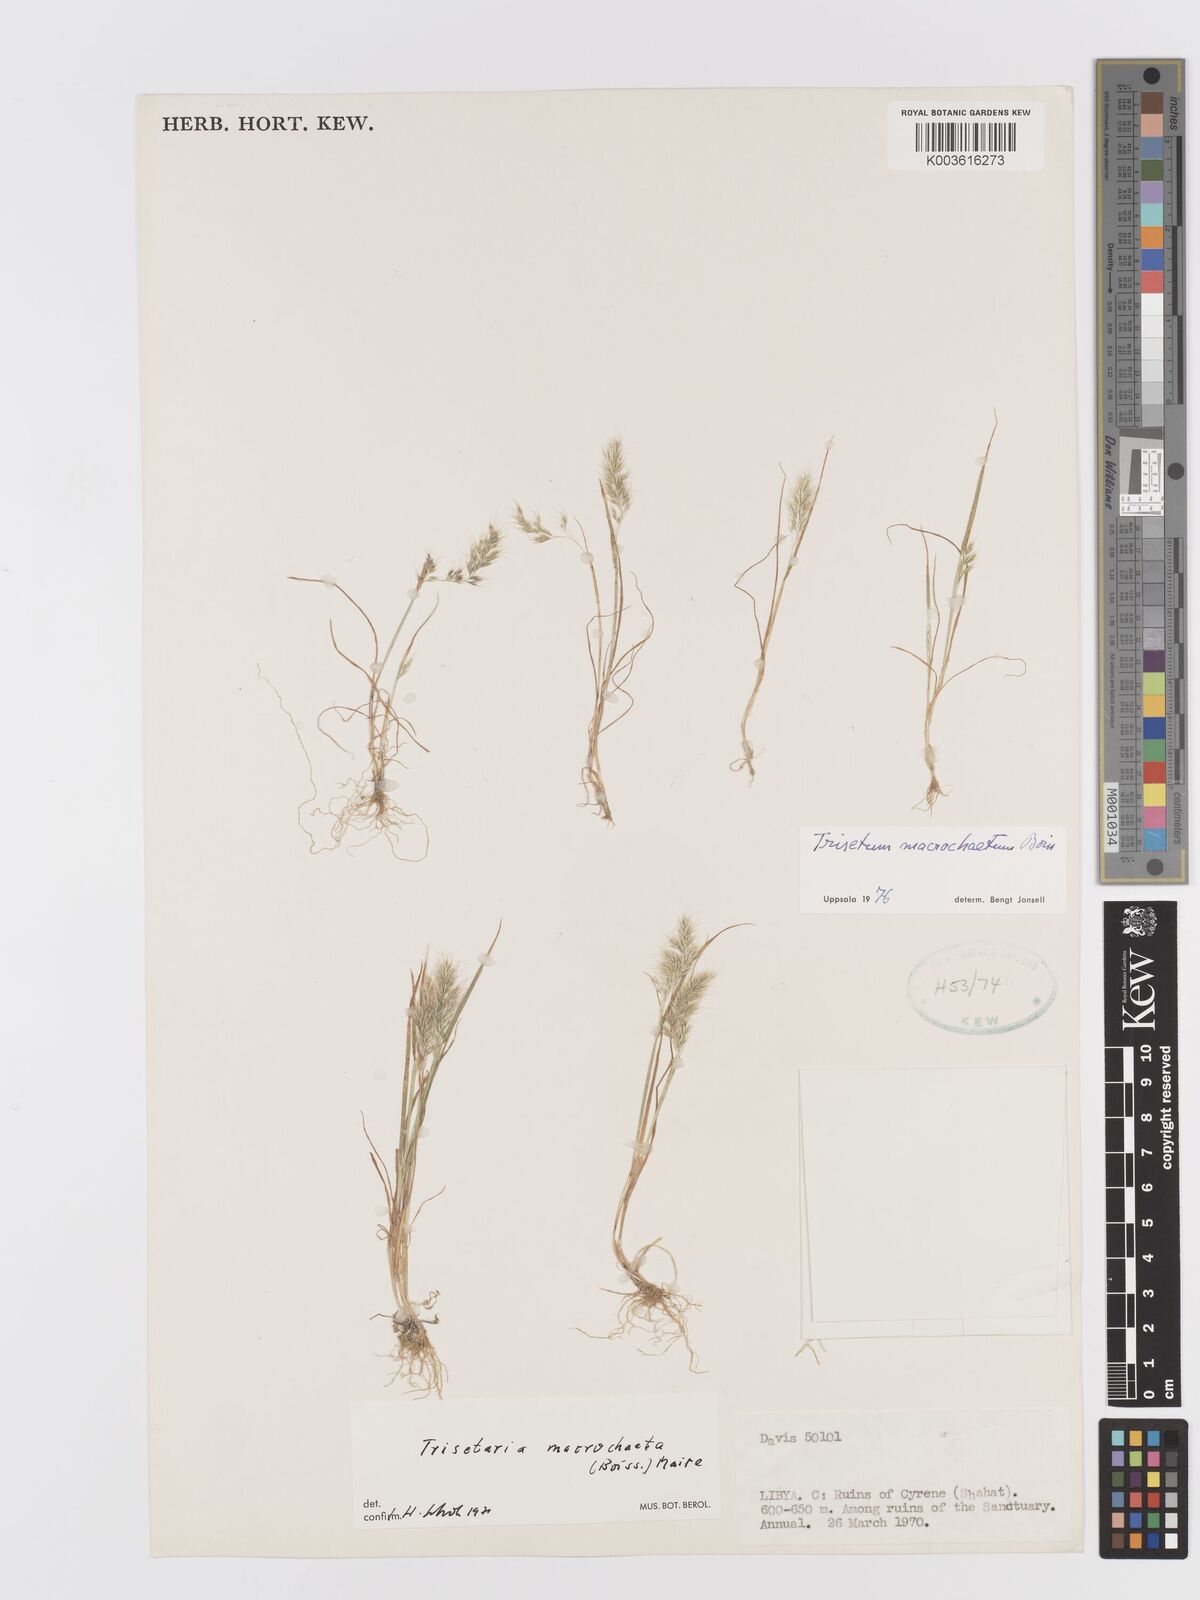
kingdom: Plantae
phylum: Tracheophyta
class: Liliopsida
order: Poales
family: Poaceae
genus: Trisetaria
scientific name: Trisetaria macrochaeta
